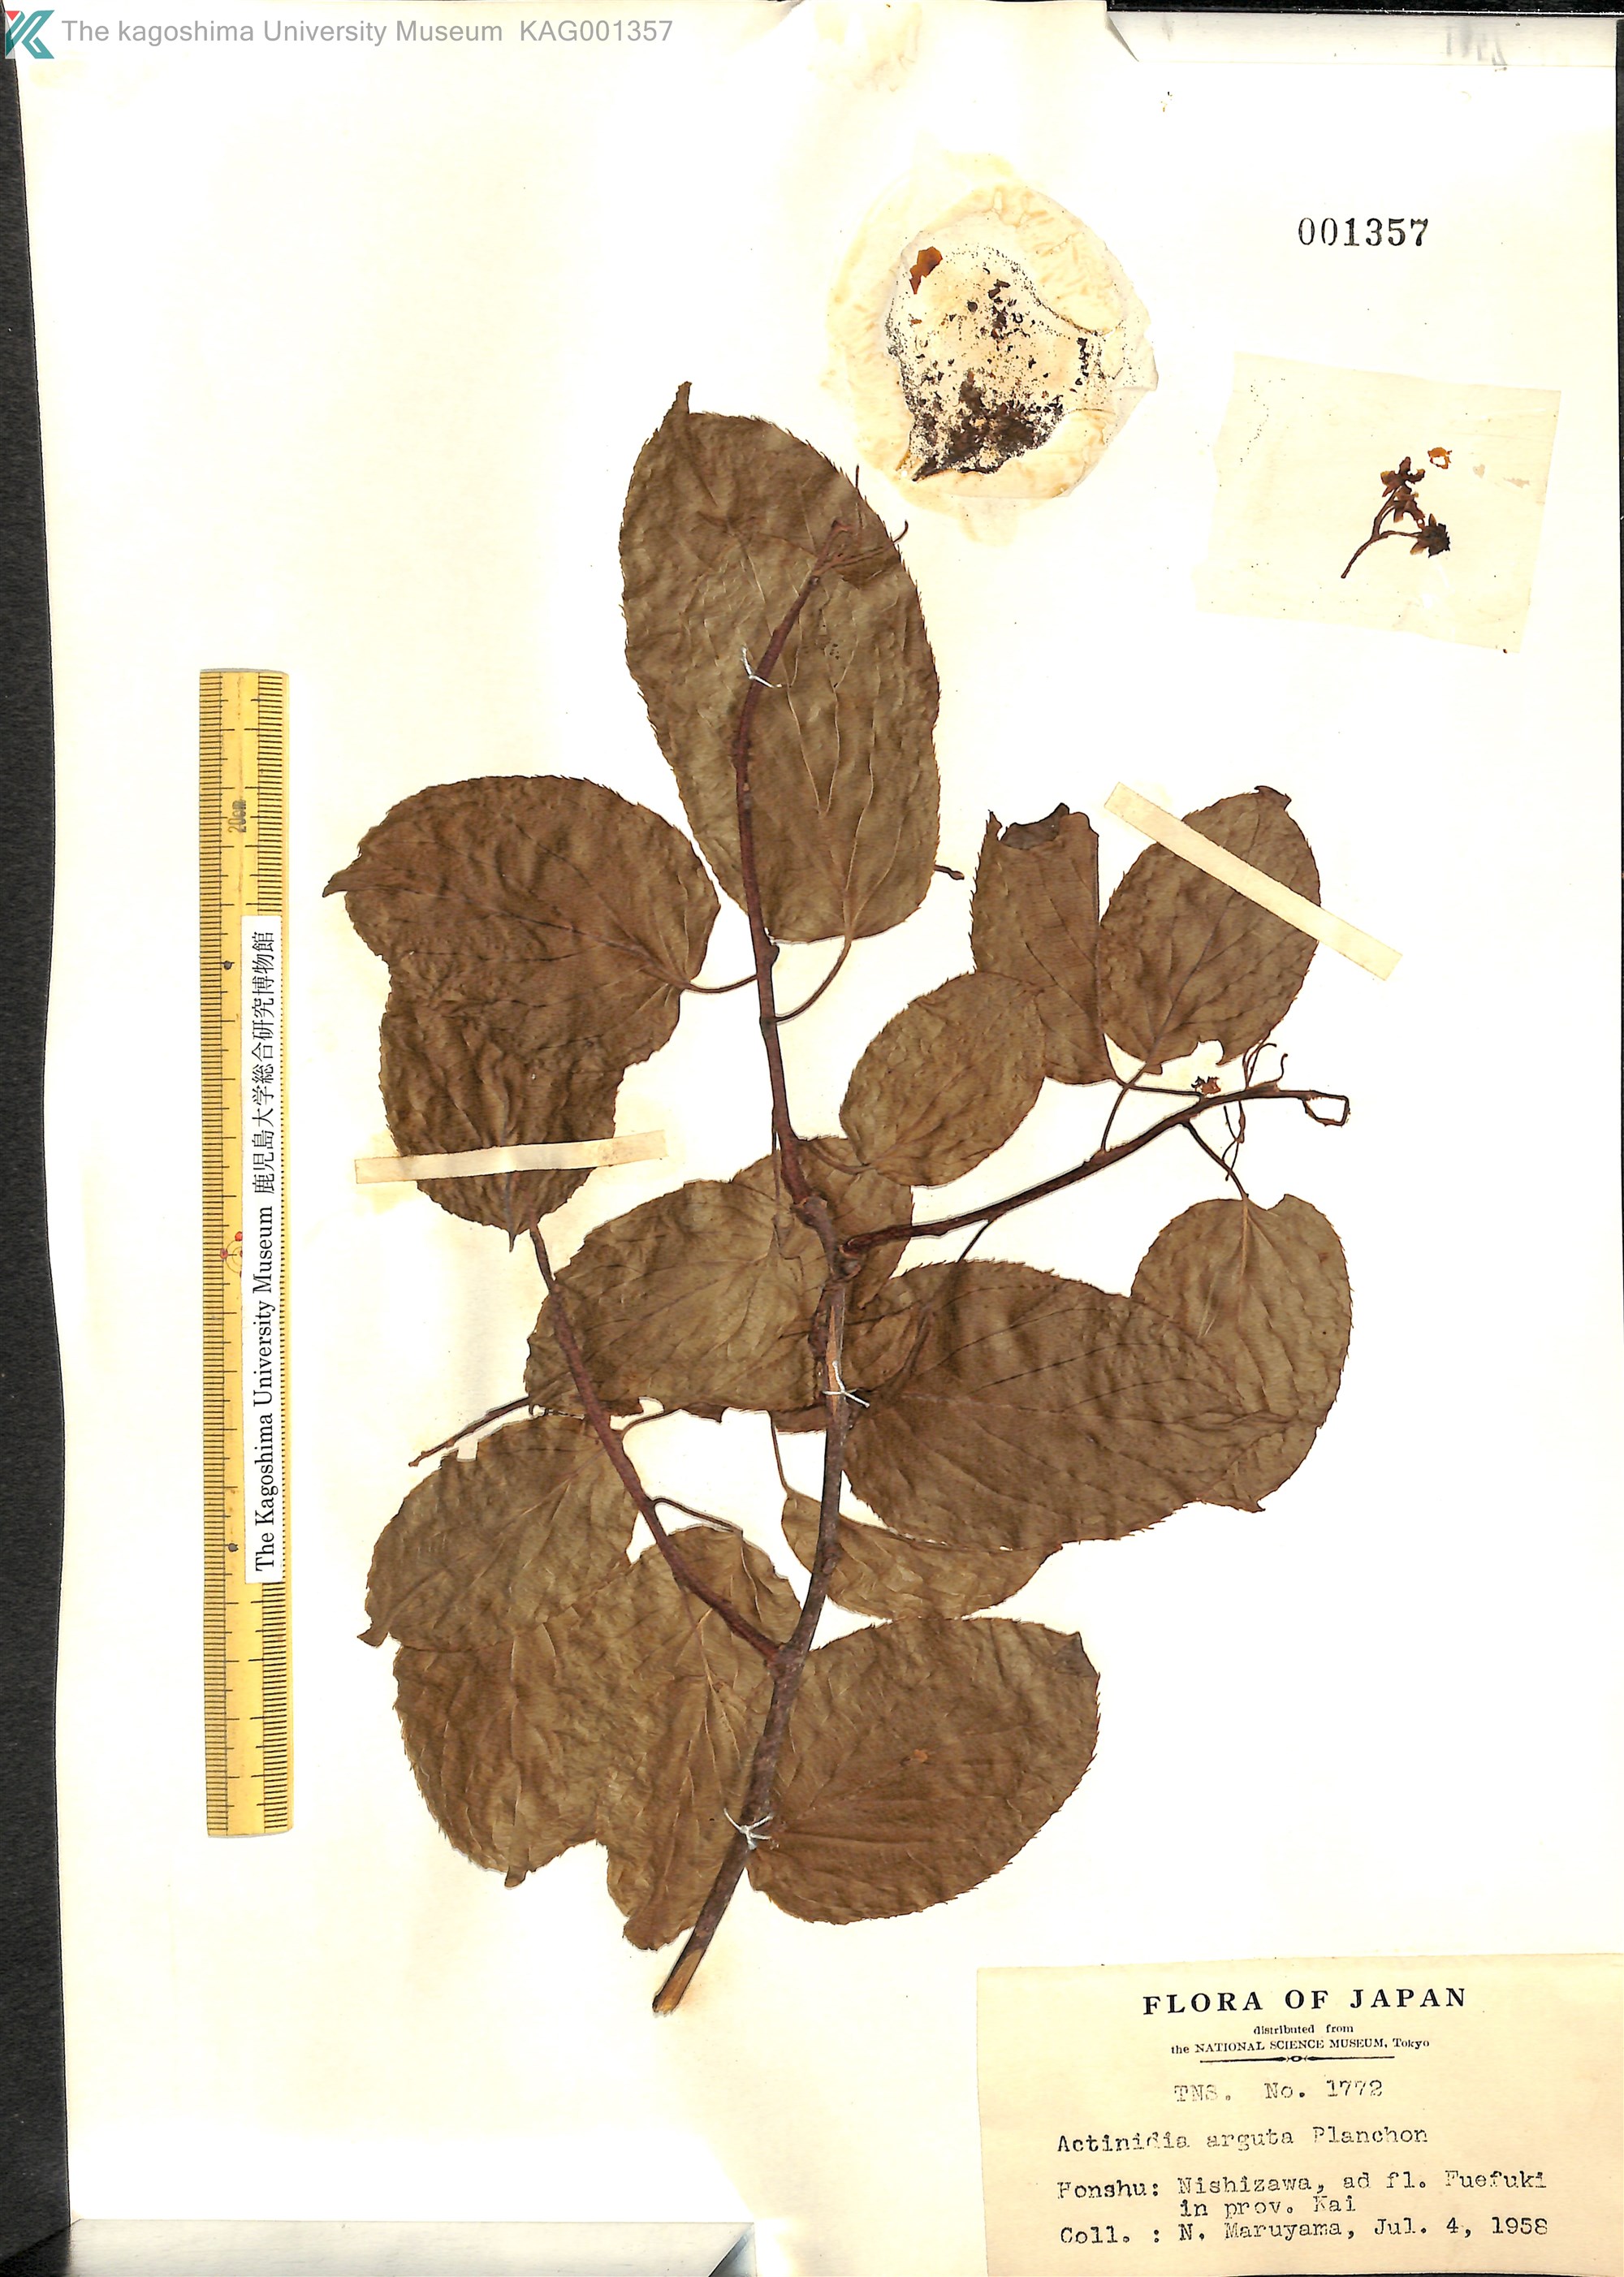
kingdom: Plantae
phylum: Tracheophyta
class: Magnoliopsida
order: Ericales
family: Actinidiaceae
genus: Actinidia
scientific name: Actinidia arguta
